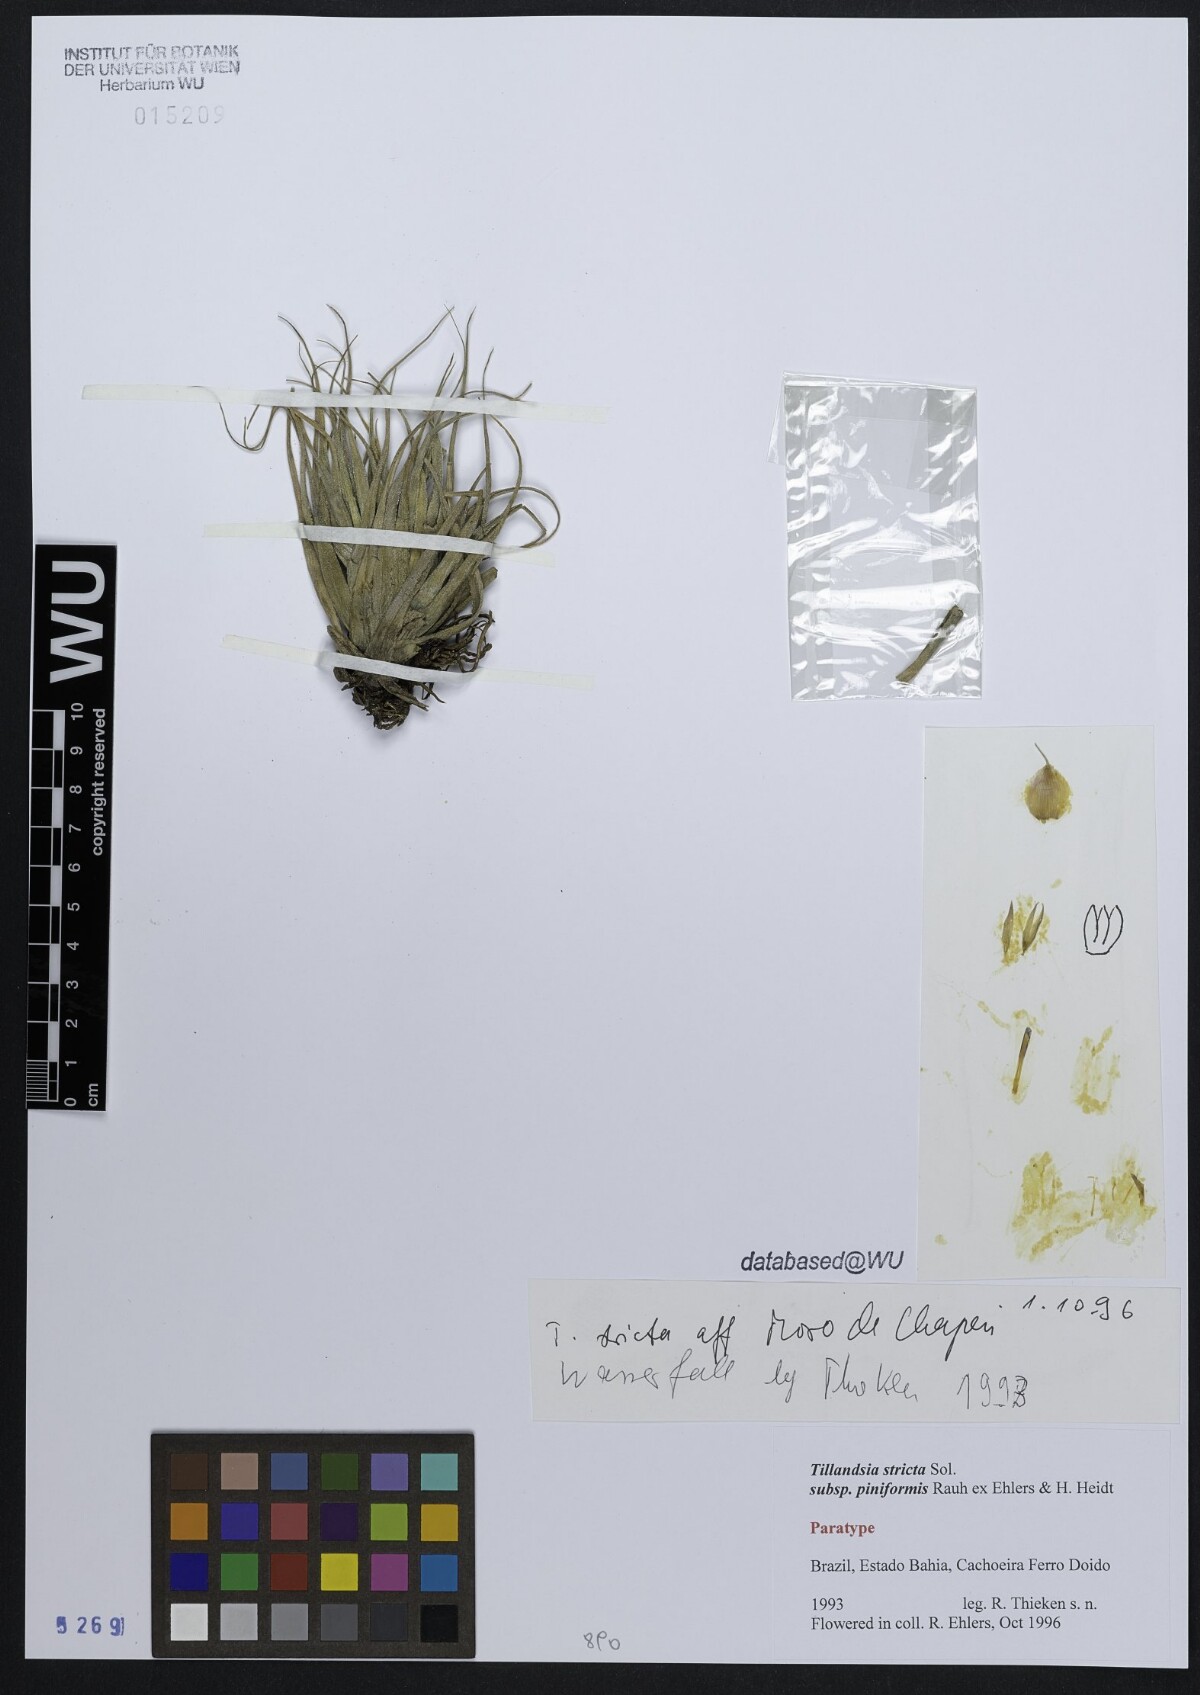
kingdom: Plantae
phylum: Tracheophyta
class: Liliopsida
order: Poales
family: Bromeliaceae
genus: Tillandsia
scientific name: Tillandsia stricta
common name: Airplant
